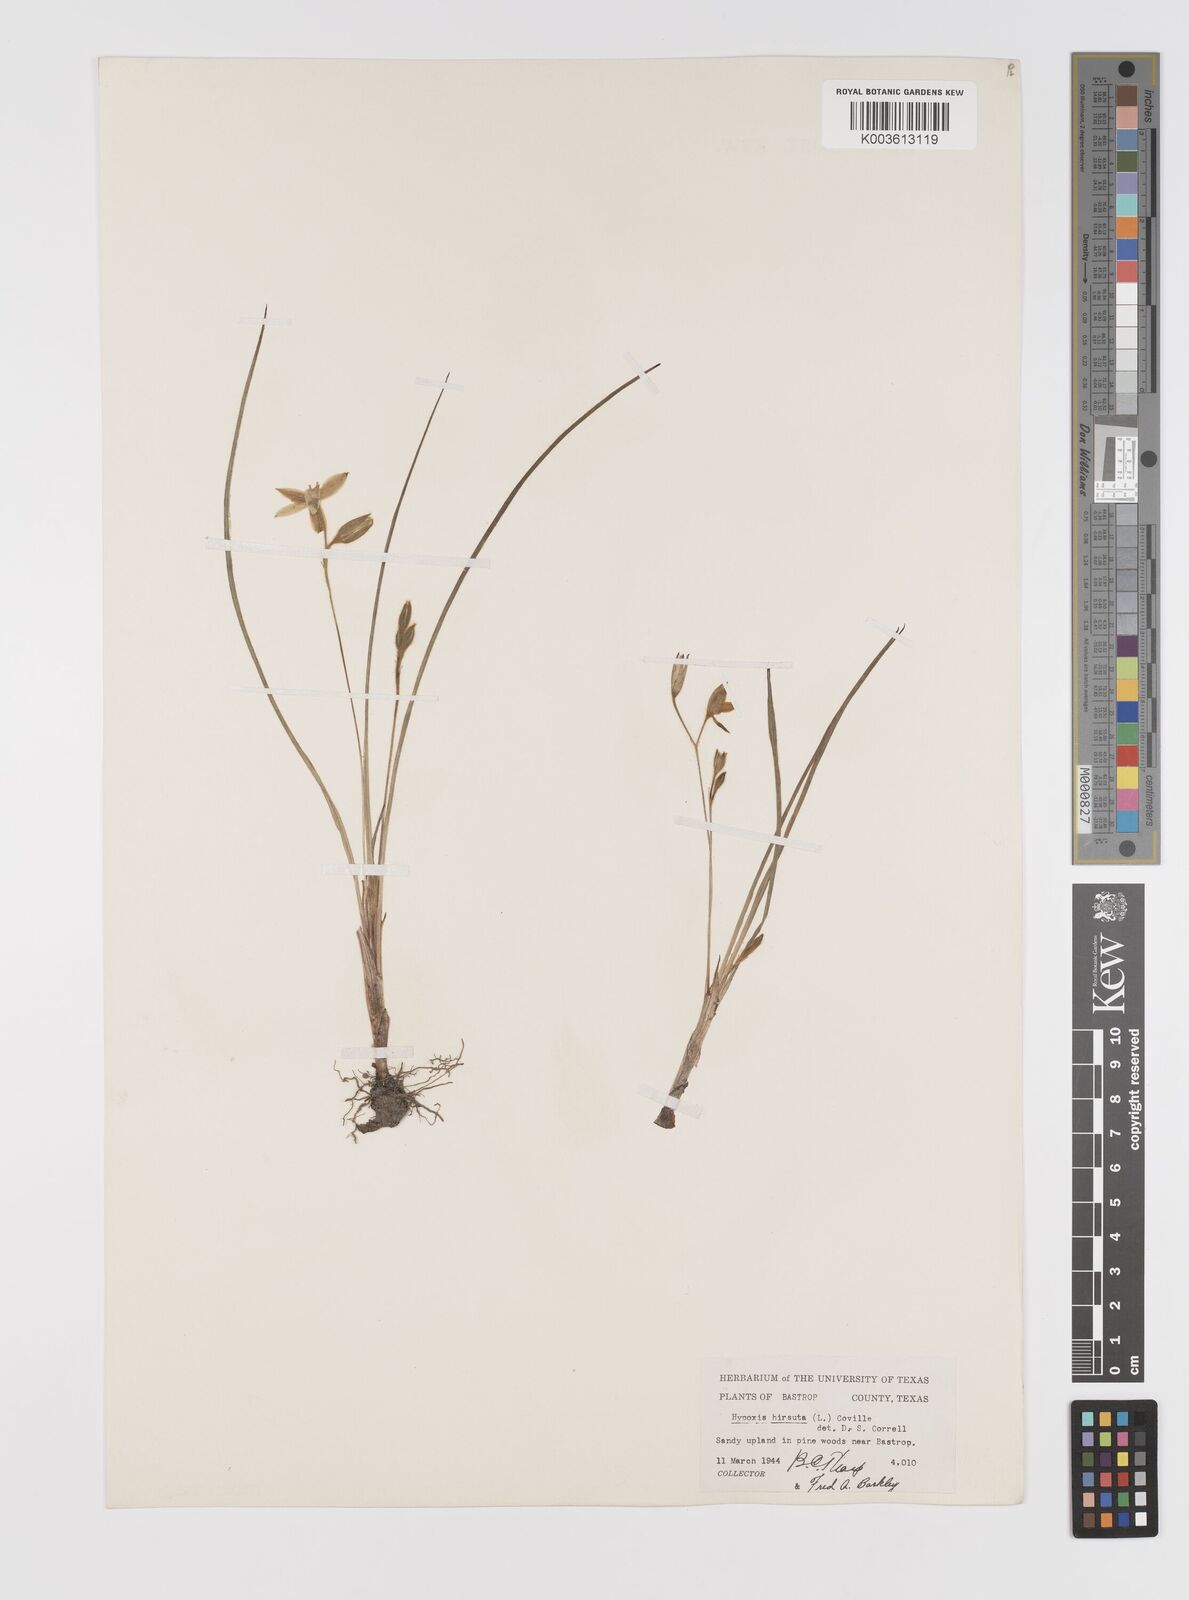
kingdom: Plantae
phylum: Tracheophyta
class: Liliopsida
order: Asparagales
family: Hypoxidaceae
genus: Hypoxis
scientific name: Hypoxis hirsuta
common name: Common goldstar
